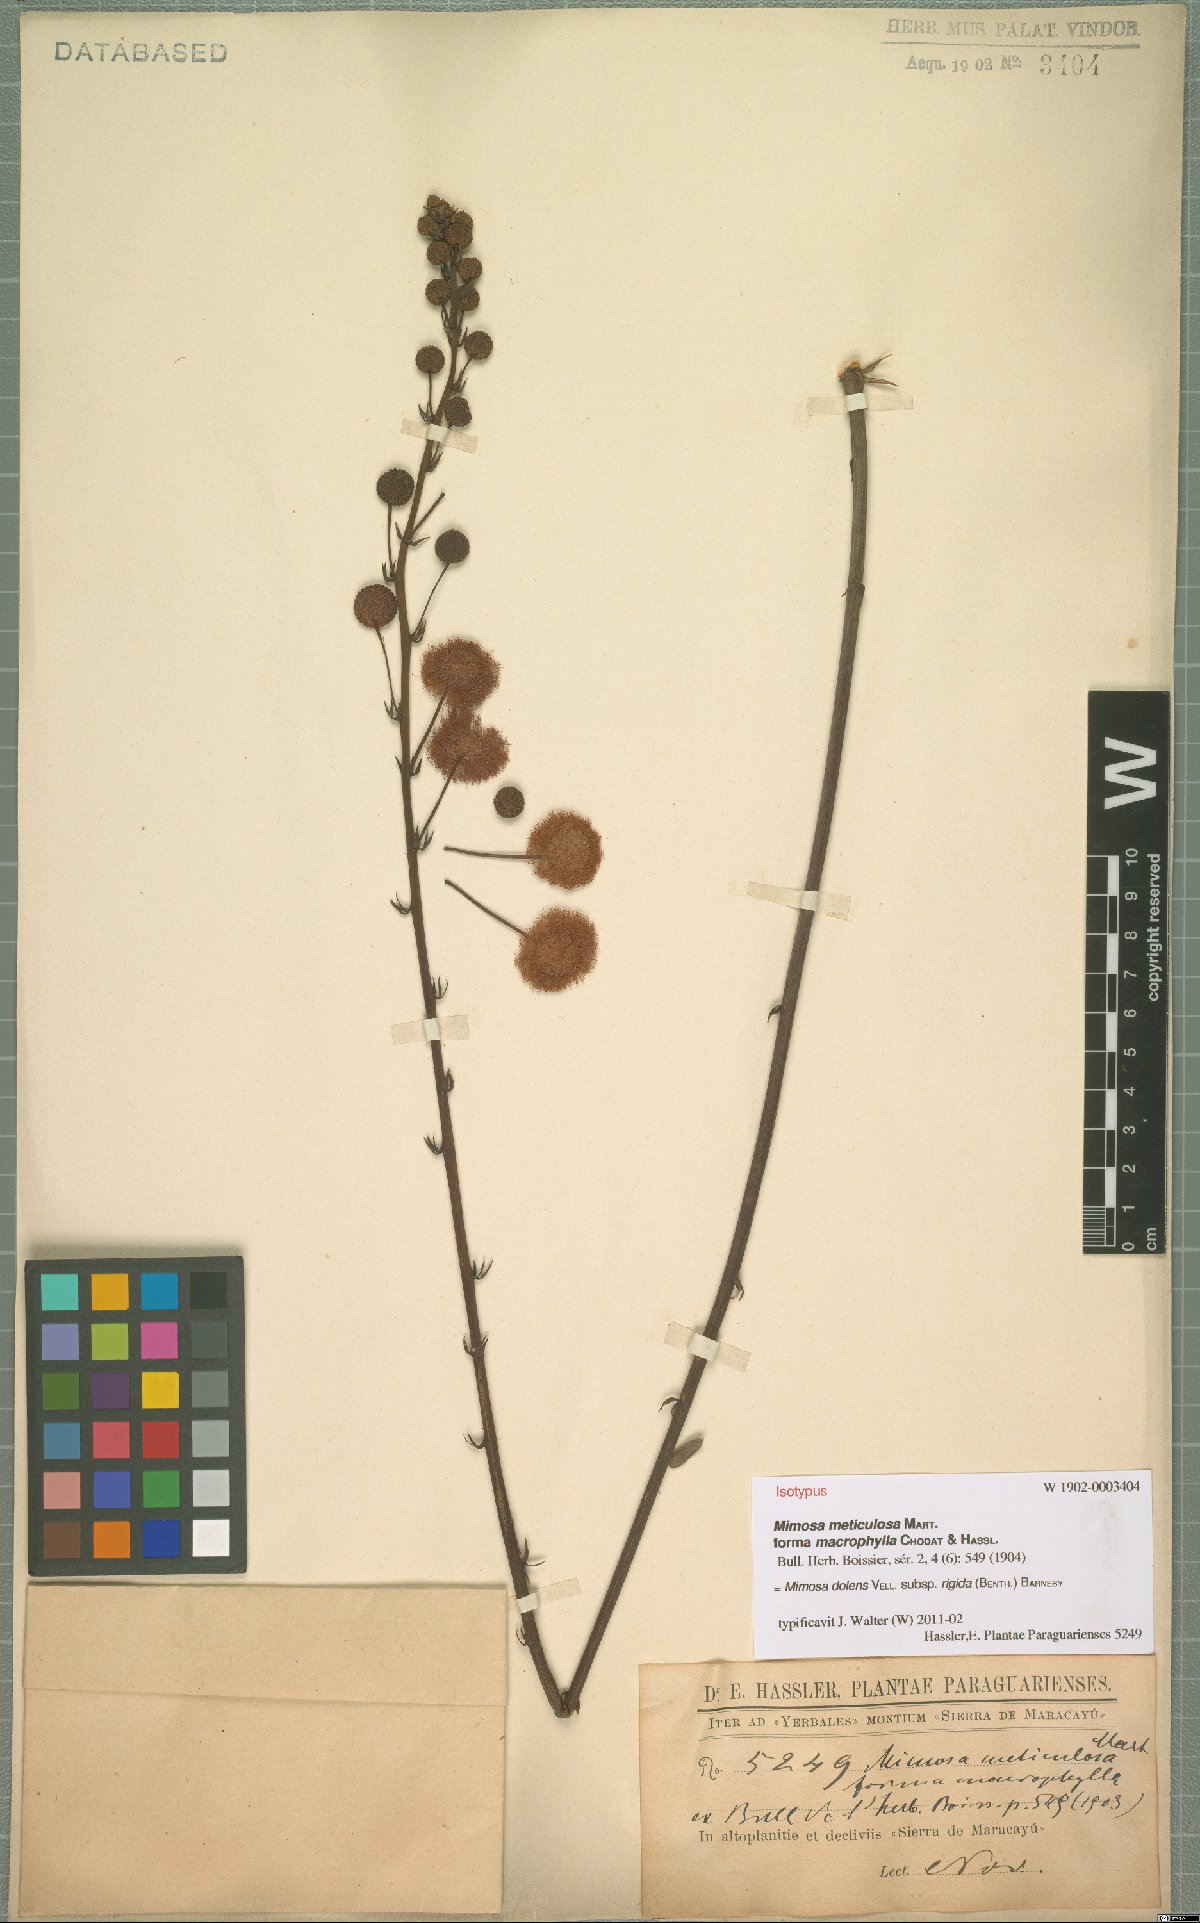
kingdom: Plantae
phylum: Tracheophyta
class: Magnoliopsida
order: Fabales
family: Fabaceae
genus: Mimosa
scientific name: Mimosa dolens
